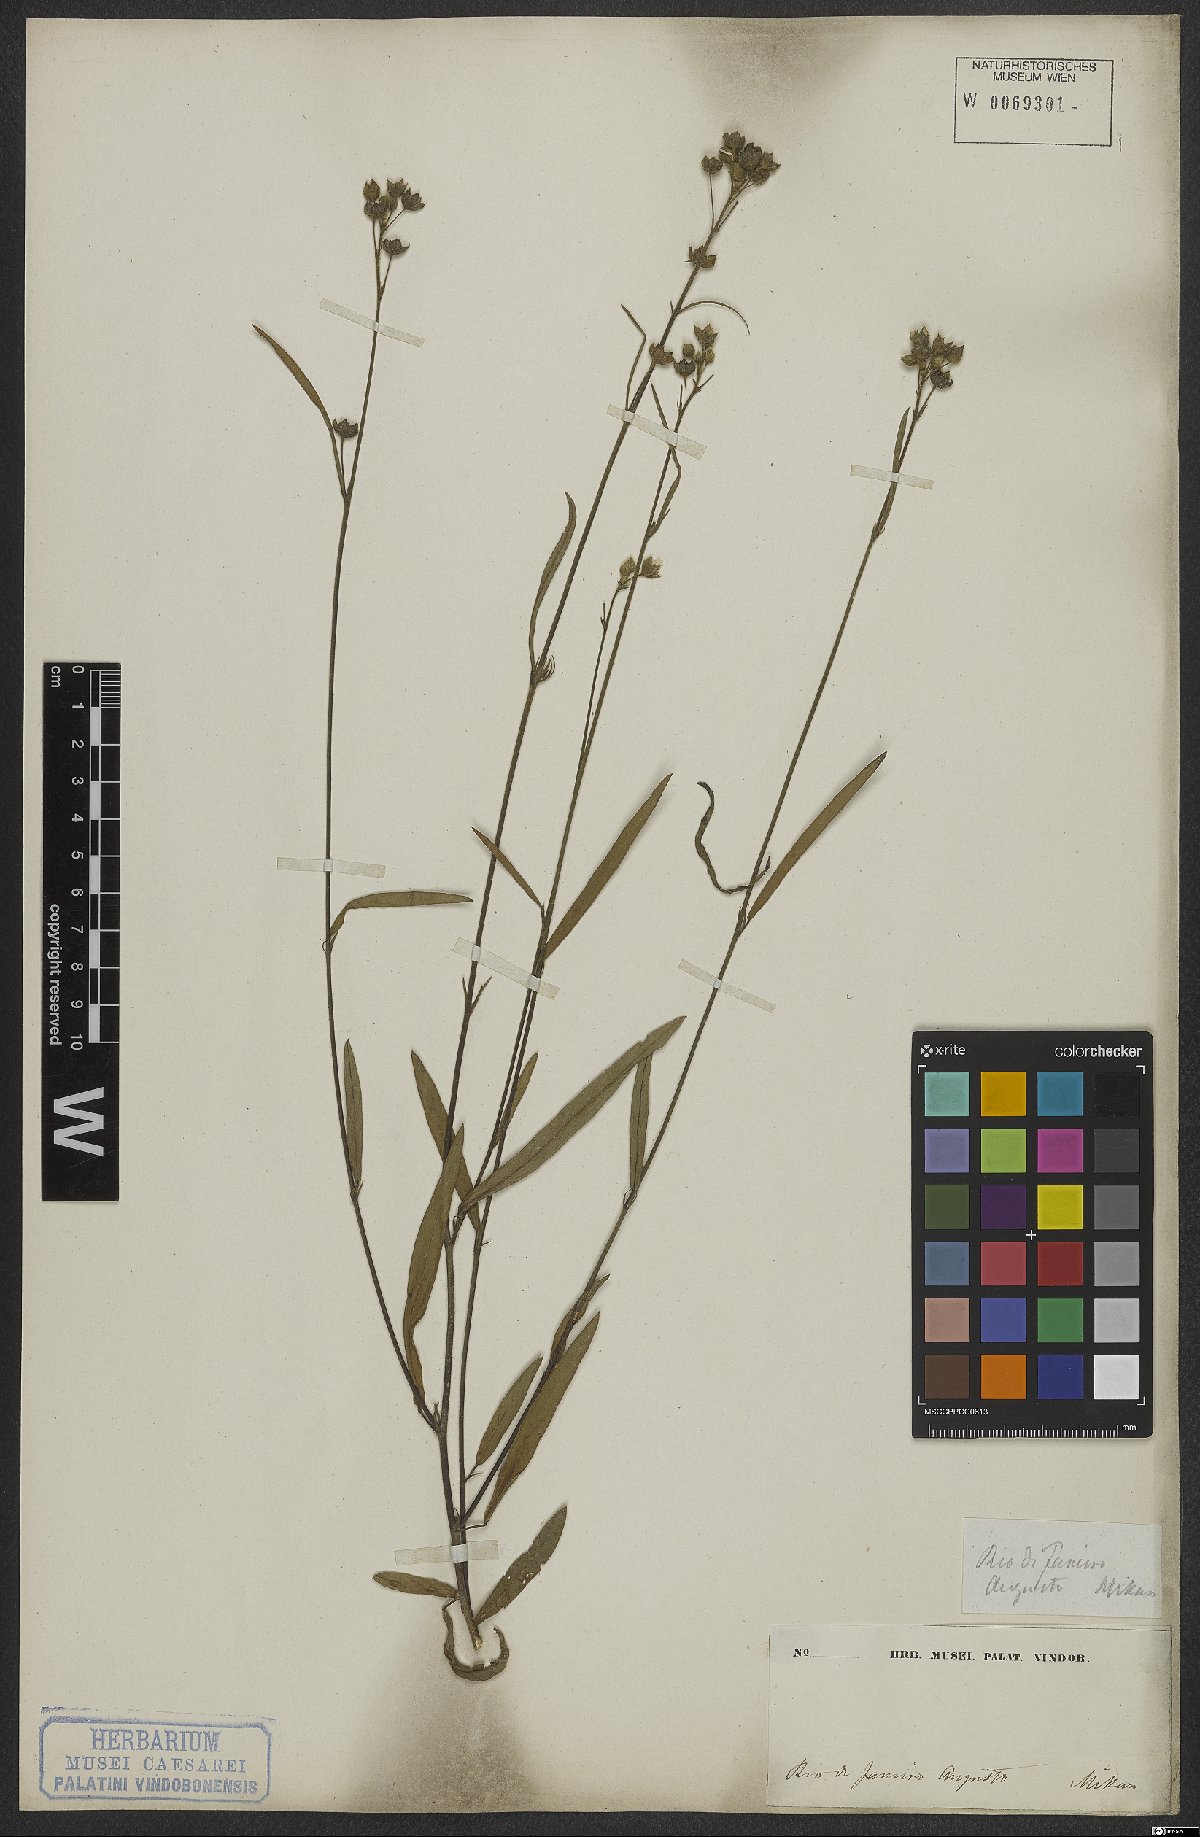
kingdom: Plantae
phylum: Tracheophyta
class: Magnoliopsida
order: Malvales
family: Malvaceae
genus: Sida
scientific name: Sida linifolia
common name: Flaxleaf fanpetals
